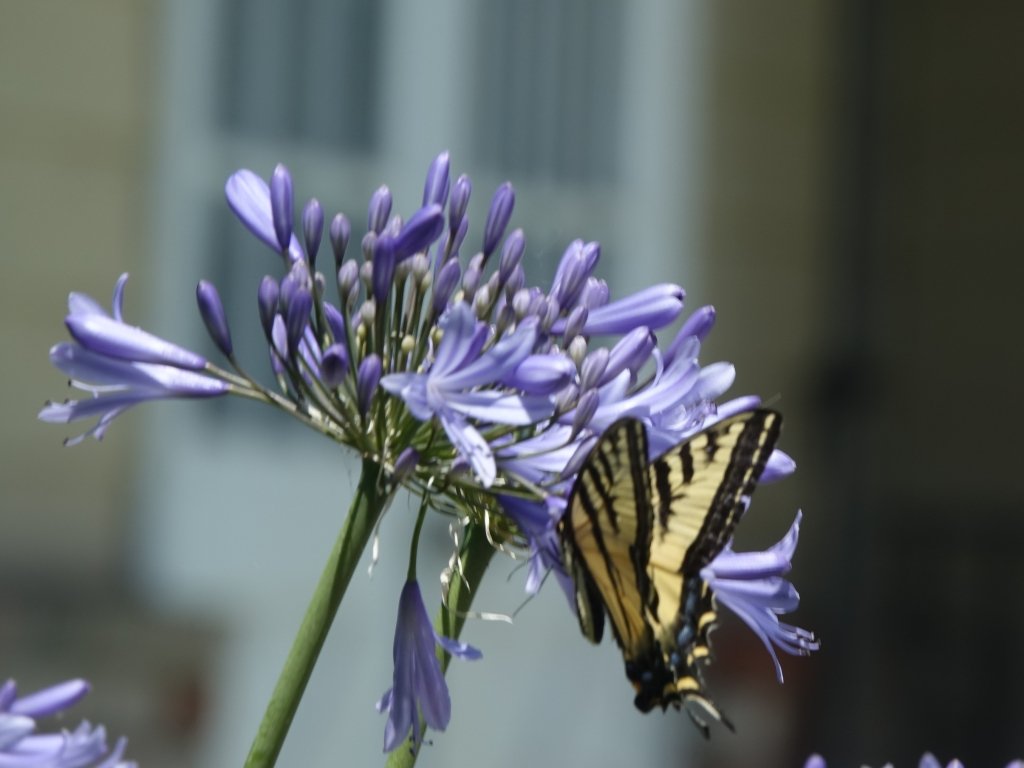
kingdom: Animalia
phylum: Arthropoda
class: Insecta
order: Lepidoptera
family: Papilionidae
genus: Pterourus
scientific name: Pterourus rutulus
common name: Western Tiger Swallowtail
